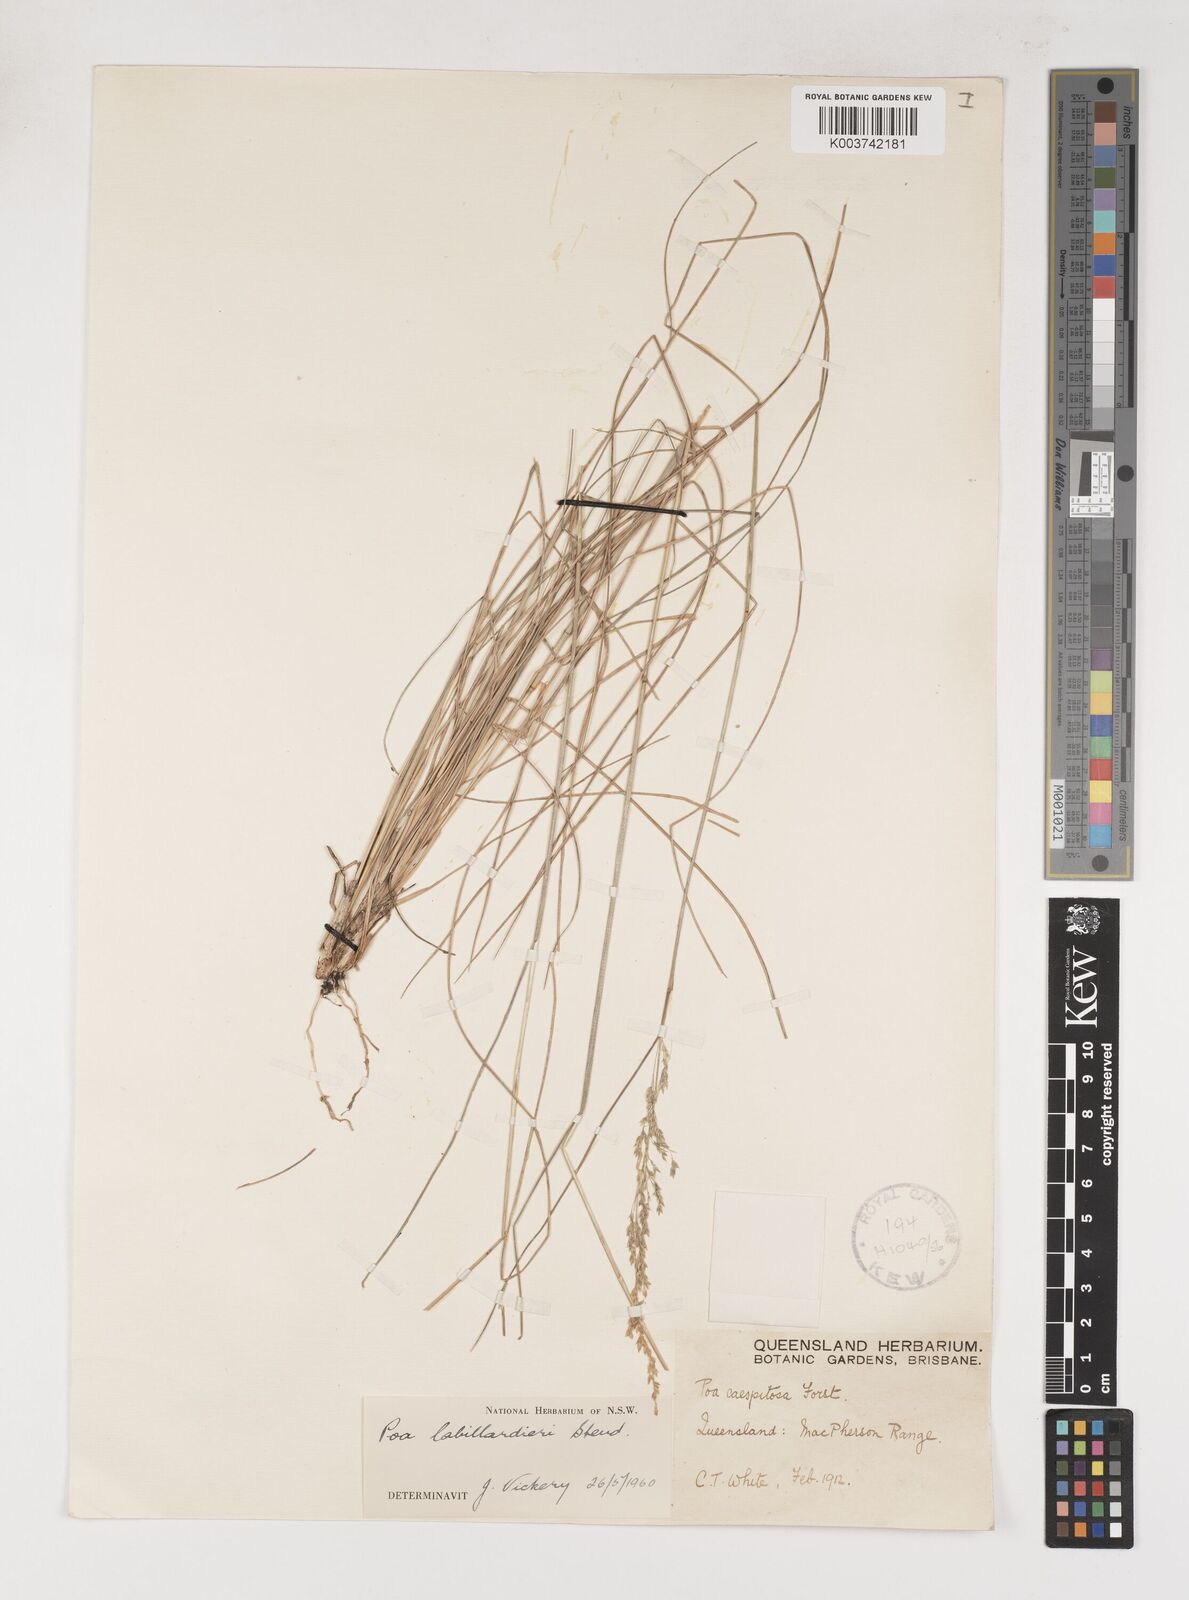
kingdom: Plantae
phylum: Tracheophyta
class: Liliopsida
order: Poales
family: Poaceae
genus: Poa
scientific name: Poa labillardierei
